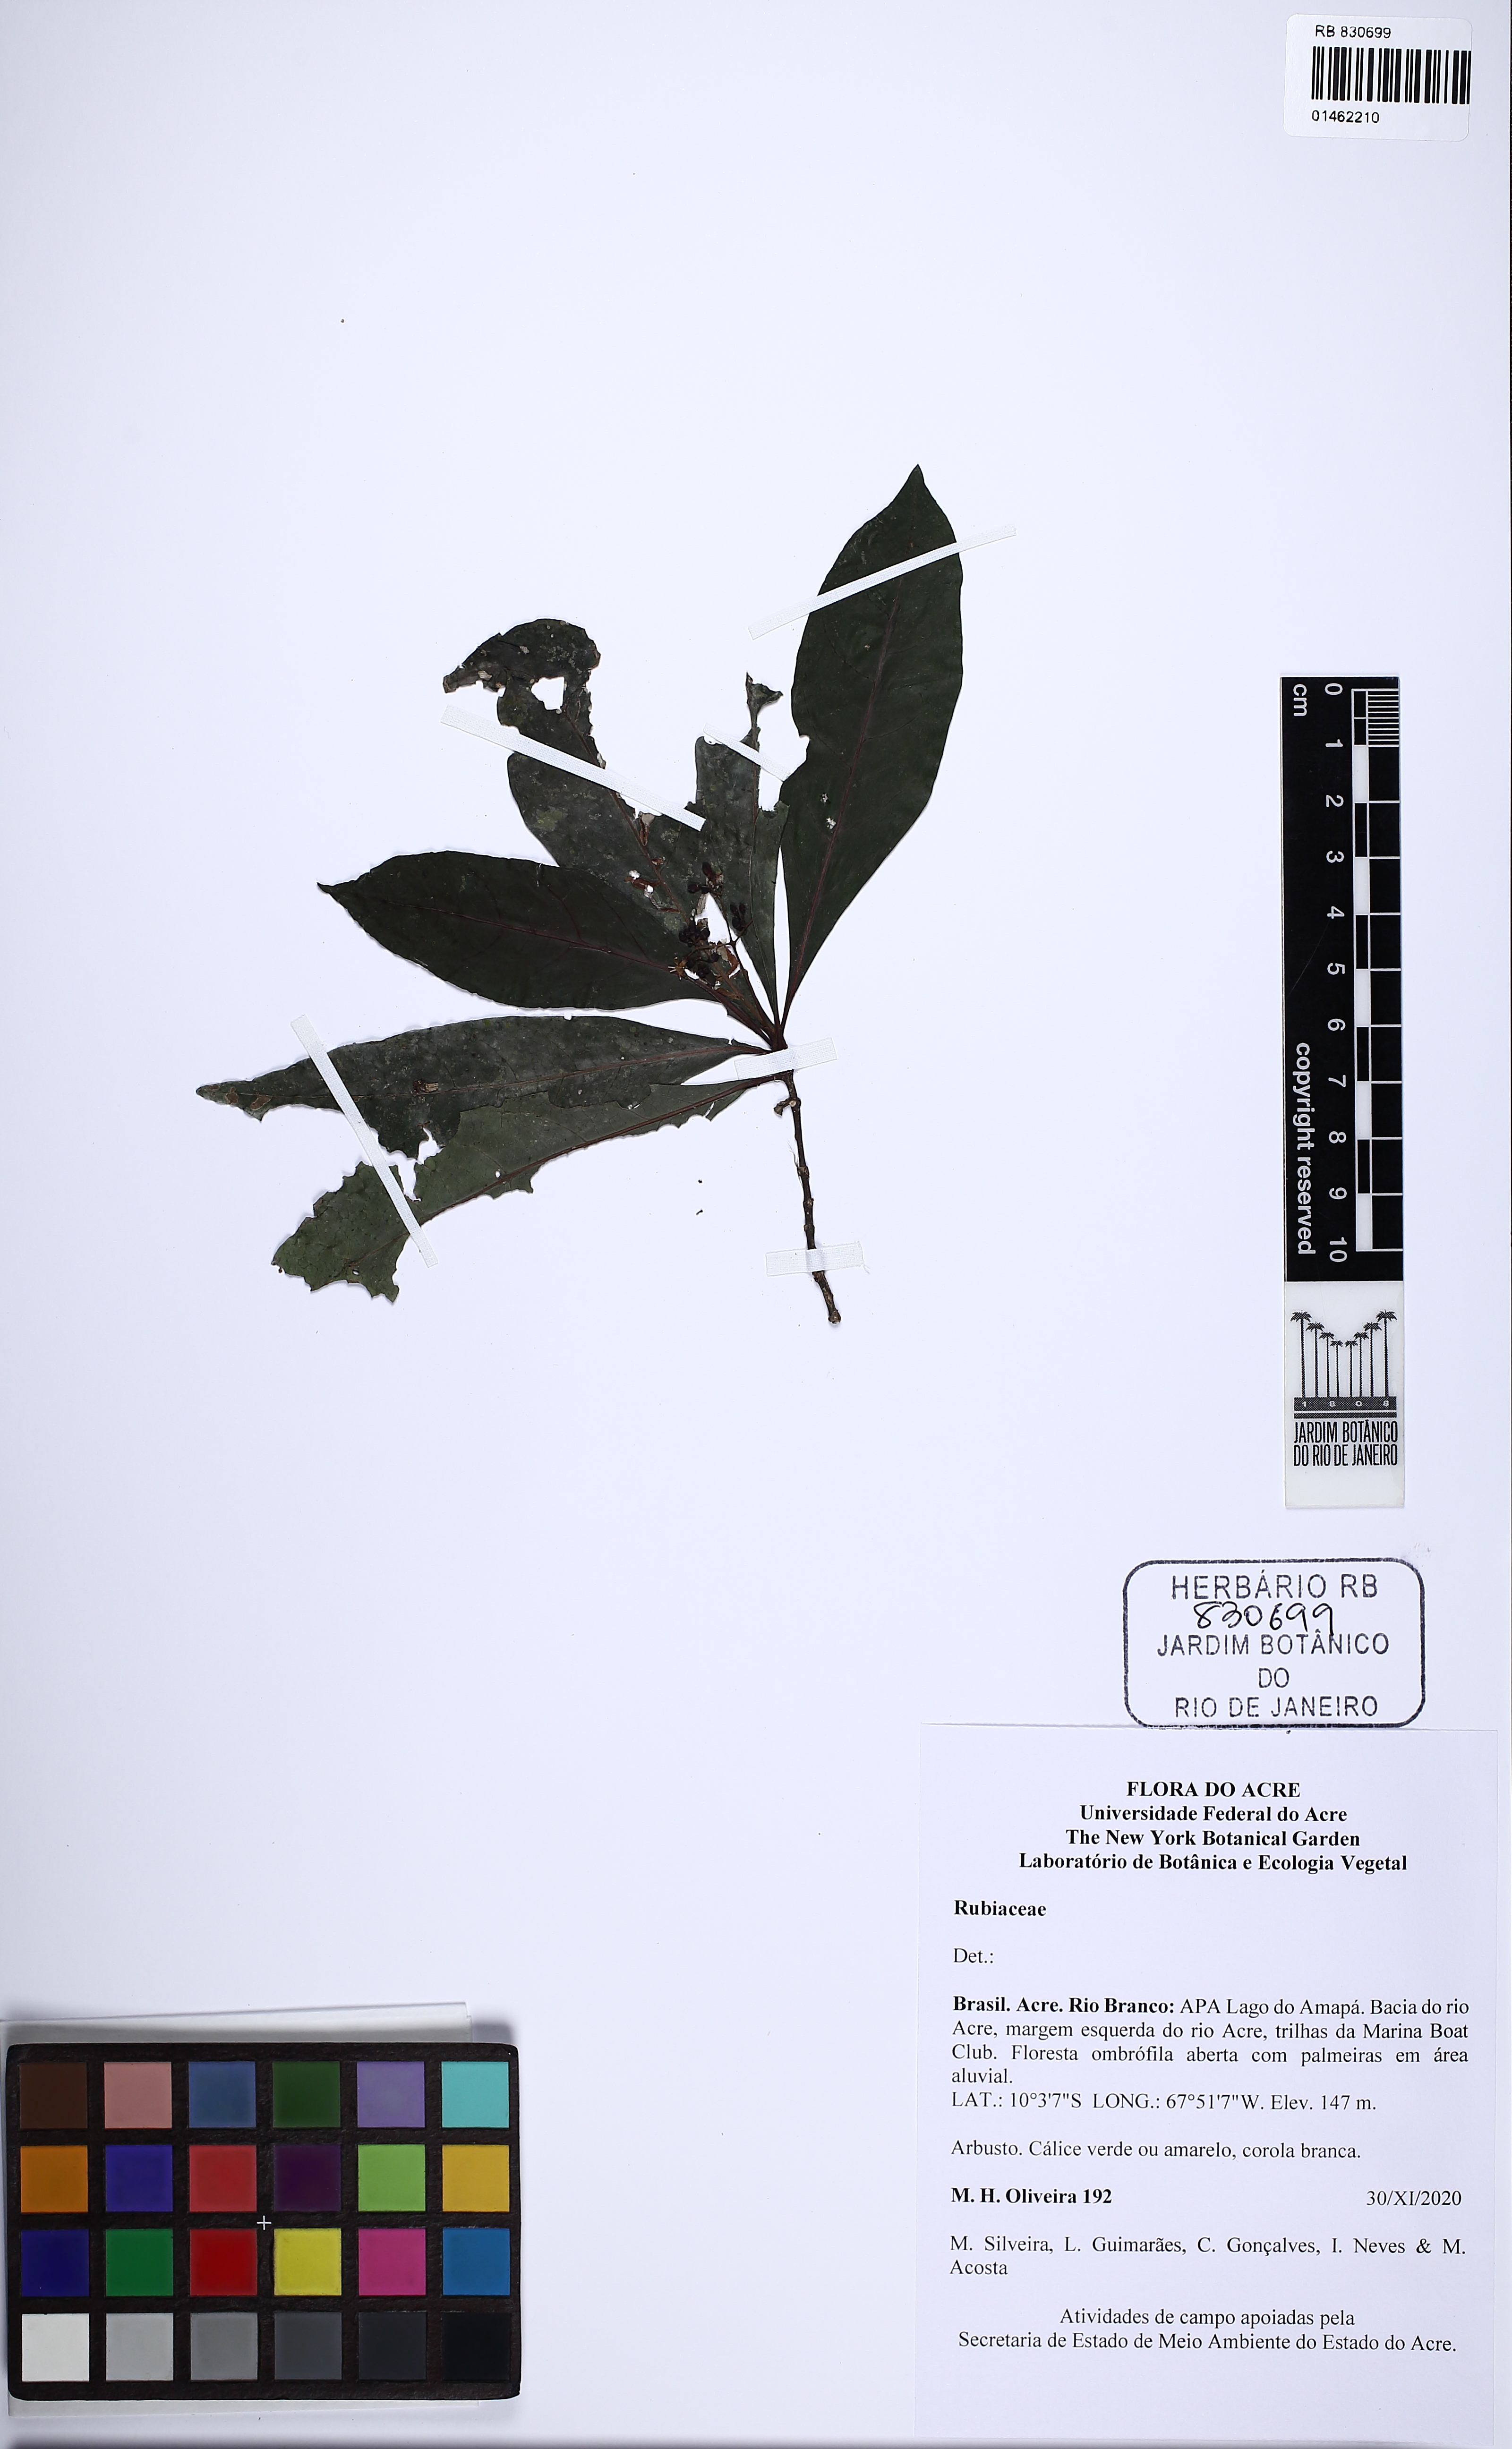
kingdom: Plantae
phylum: Tracheophyta
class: Magnoliopsida
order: Gentianales
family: Rubiaceae
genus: Palicourea
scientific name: Palicourea
